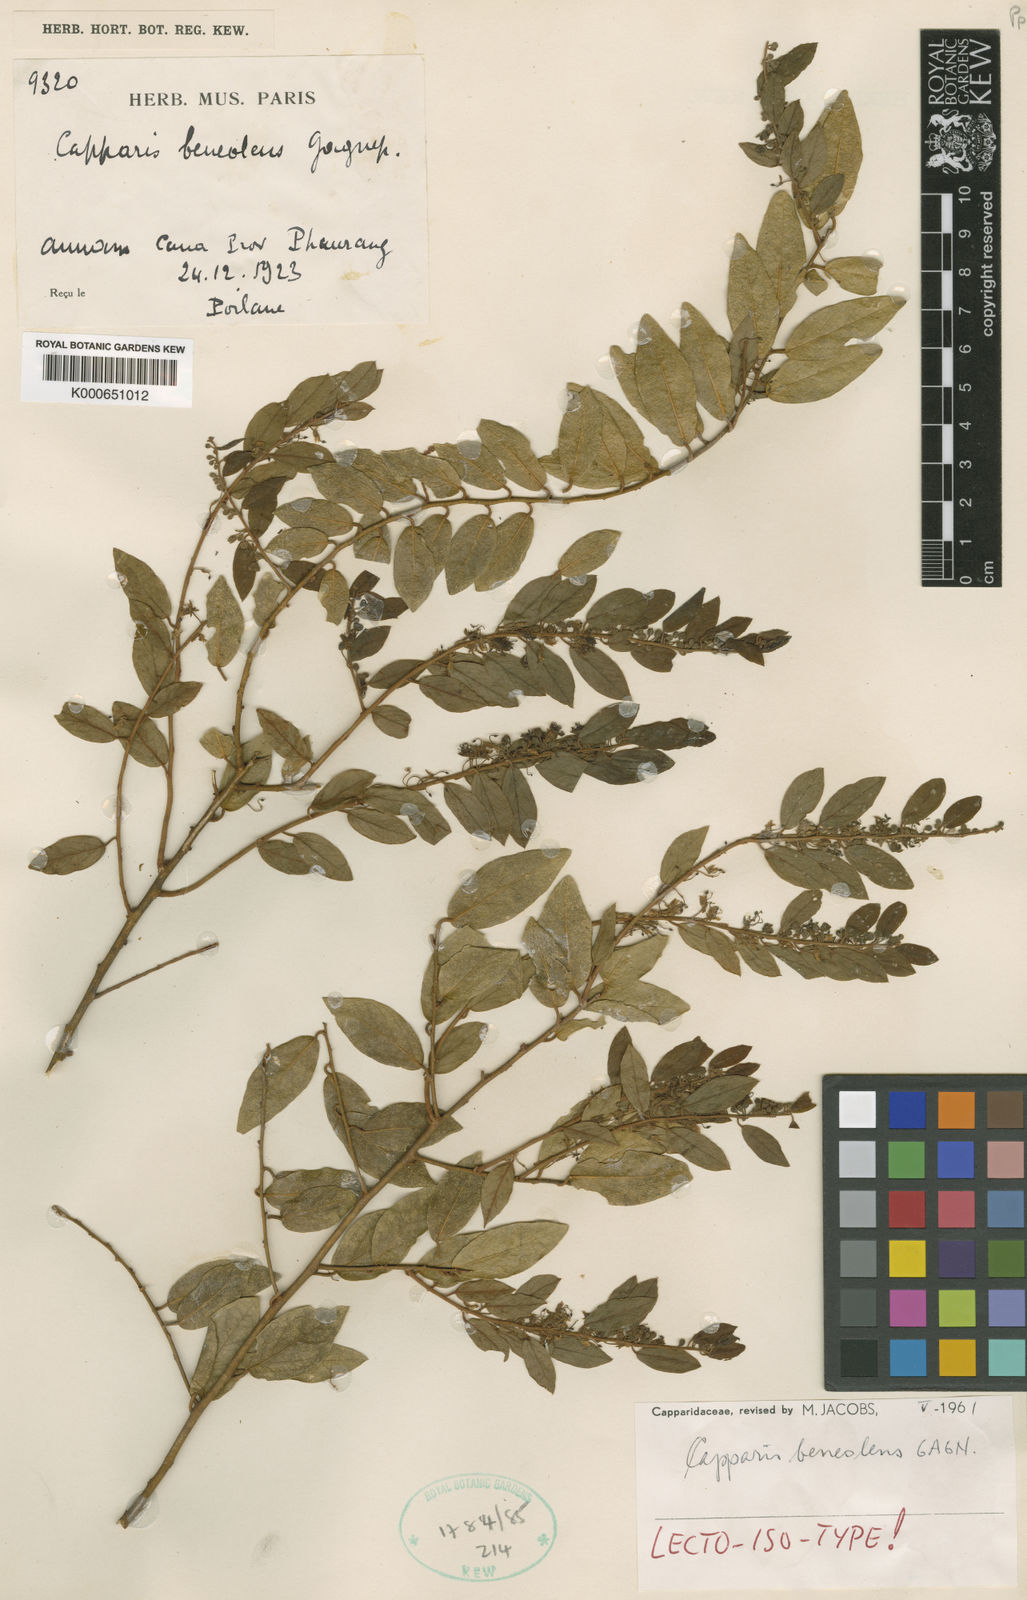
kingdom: Plantae
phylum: Tracheophyta
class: Magnoliopsida
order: Brassicales
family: Capparaceae
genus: Capparis
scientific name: Capparis beneolens
